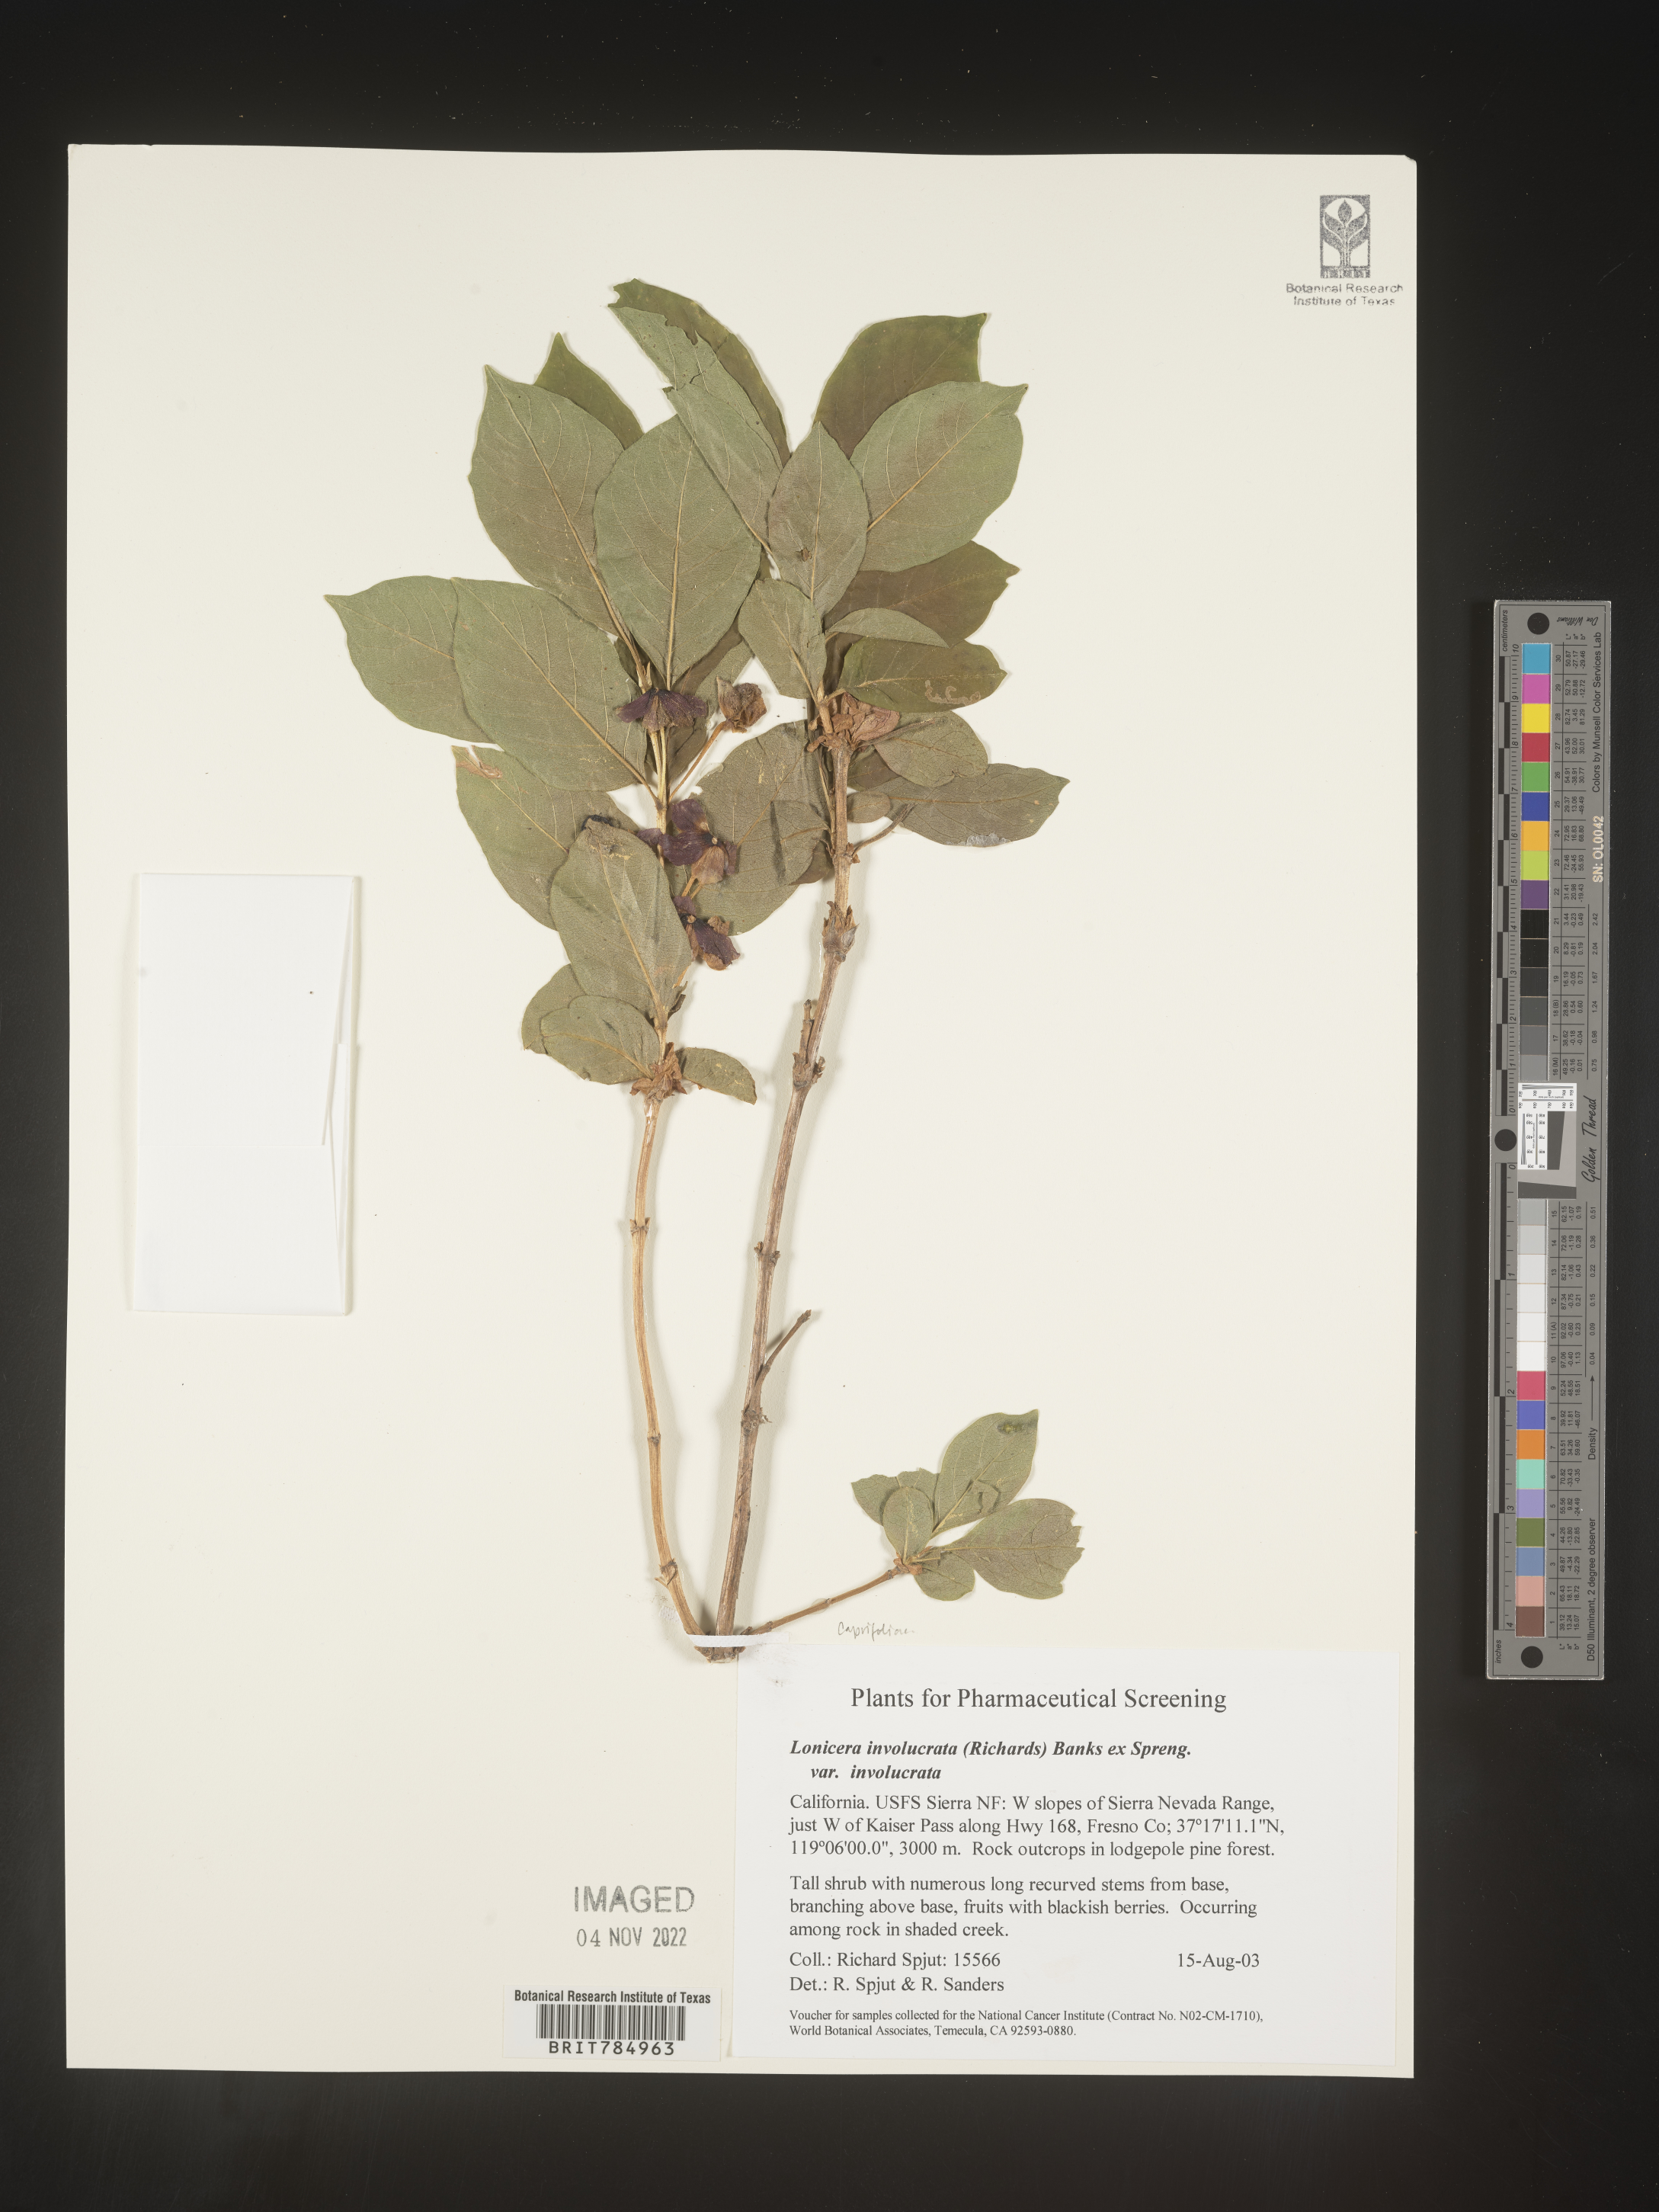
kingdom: Plantae
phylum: Tracheophyta
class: Magnoliopsida
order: Dipsacales
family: Caprifoliaceae
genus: Lonicera
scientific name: Lonicera involucrata
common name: Californian honeysuckle
